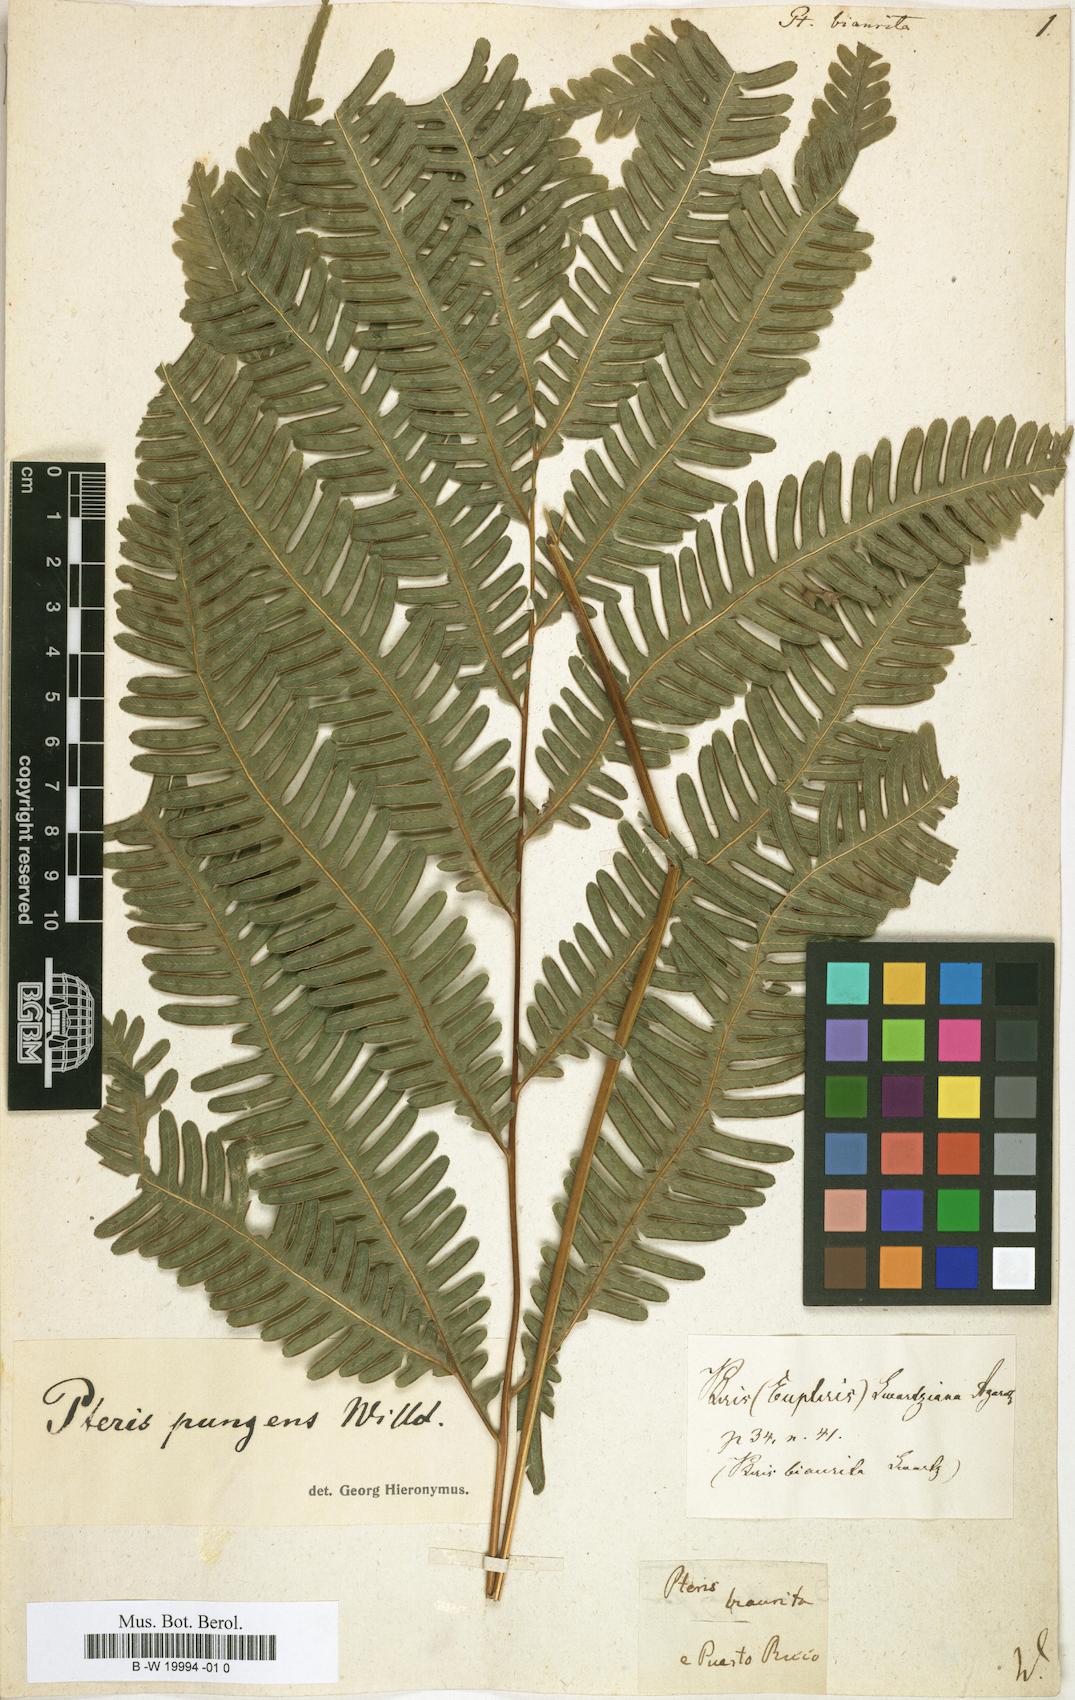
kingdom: Plantae
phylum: Tracheophyta
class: Polypodiopsida
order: Polypodiales
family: Pteridaceae
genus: Pteris
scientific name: Pteris biaurita
